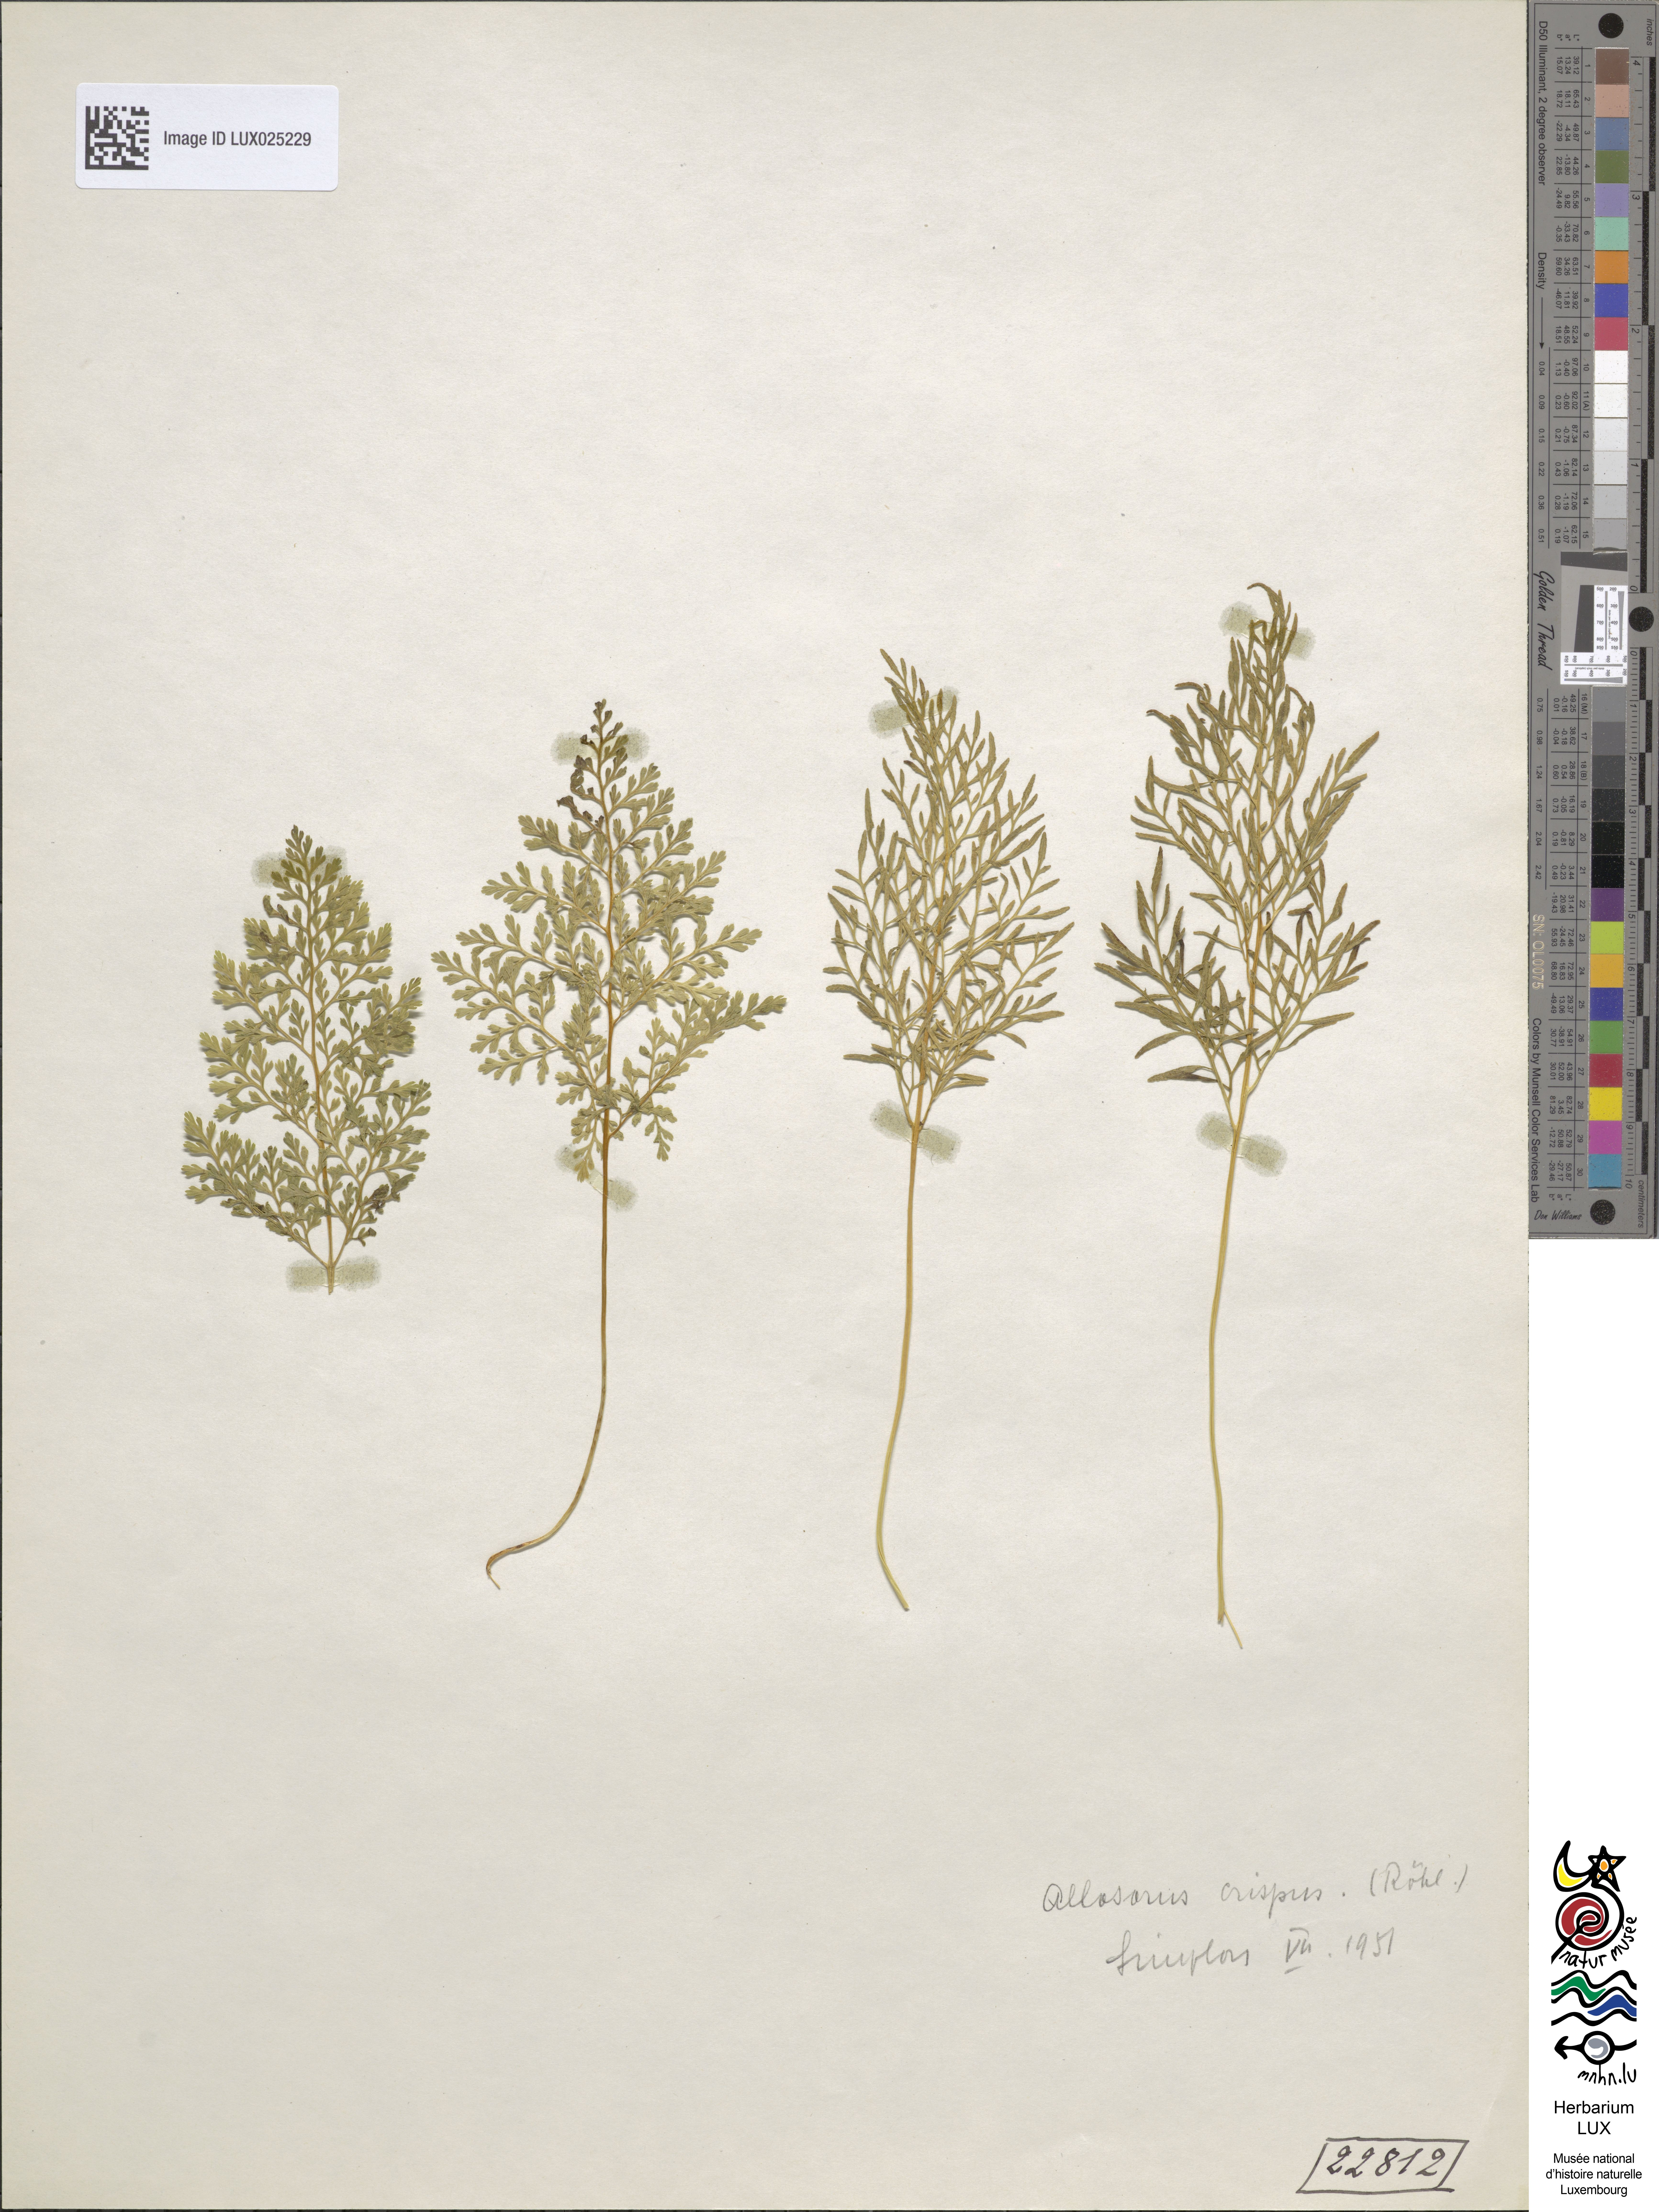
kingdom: Plantae
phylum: Tracheophyta
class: Polypodiopsida
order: Polypodiales
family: Pteridaceae
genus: Cryptogramma
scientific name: Cryptogramma crispa
